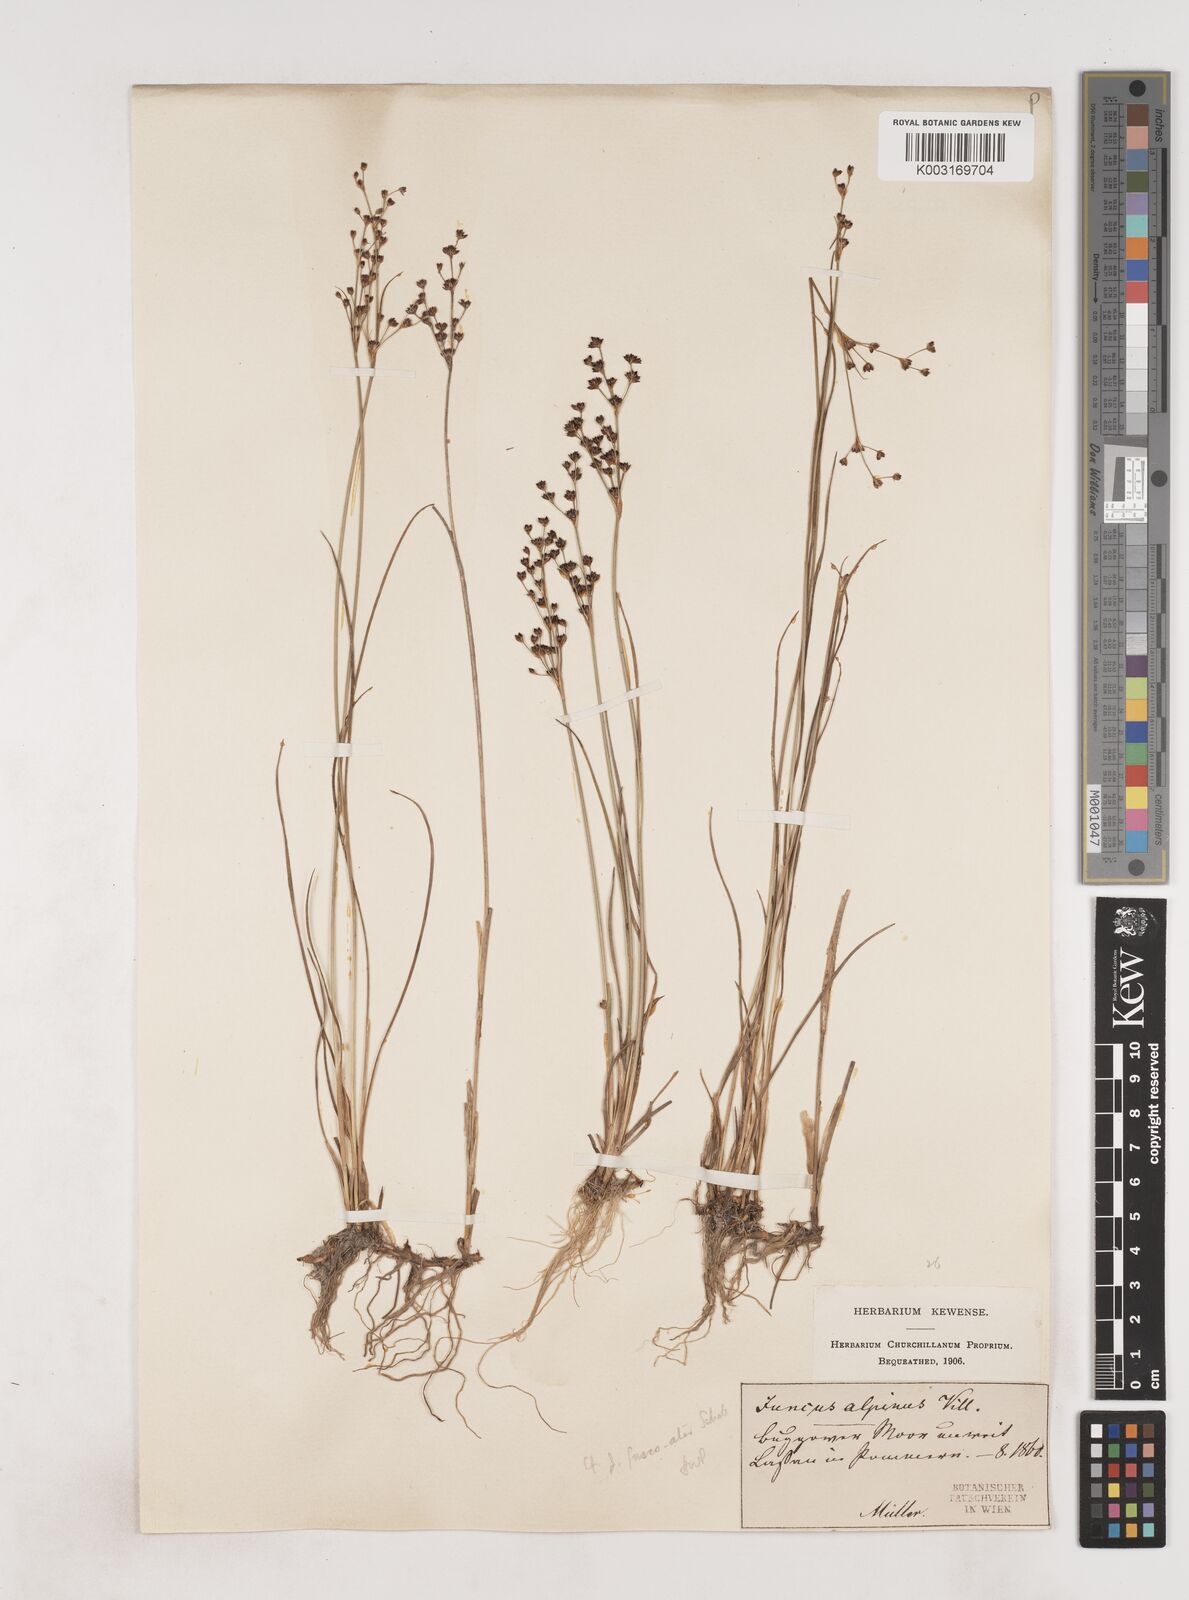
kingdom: Plantae
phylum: Tracheophyta
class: Liliopsida
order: Poales
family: Juncaceae
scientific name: Juncaceae
